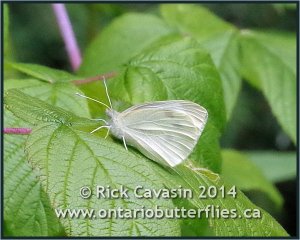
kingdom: Animalia
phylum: Arthropoda
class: Insecta
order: Lepidoptera
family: Pieridae
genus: Pieris
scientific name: Pieris rapae
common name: Cabbage White
